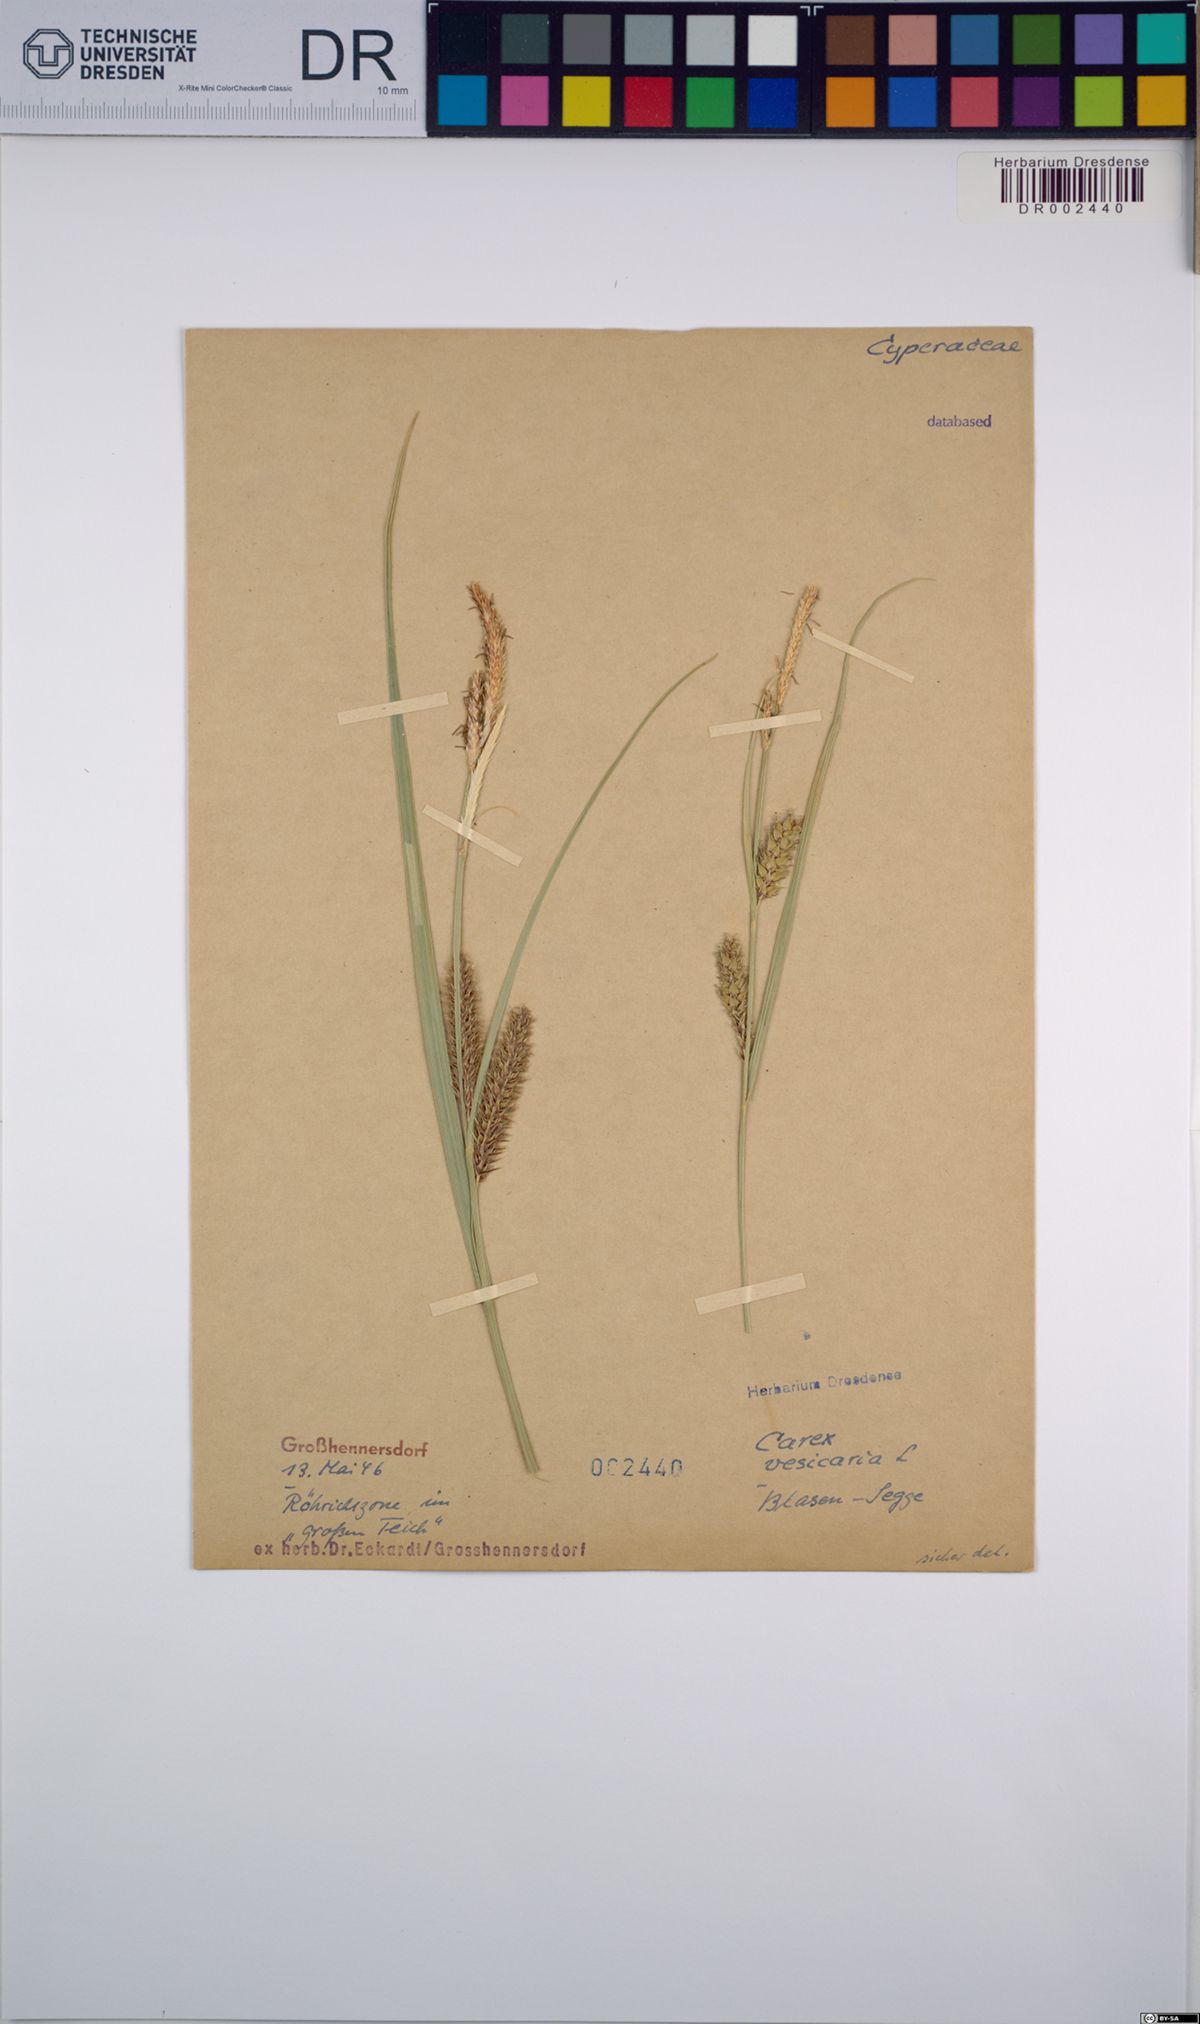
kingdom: Plantae
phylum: Tracheophyta
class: Liliopsida
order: Poales
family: Cyperaceae
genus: Carex
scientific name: Carex vesicaria
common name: Bladder-sedge
